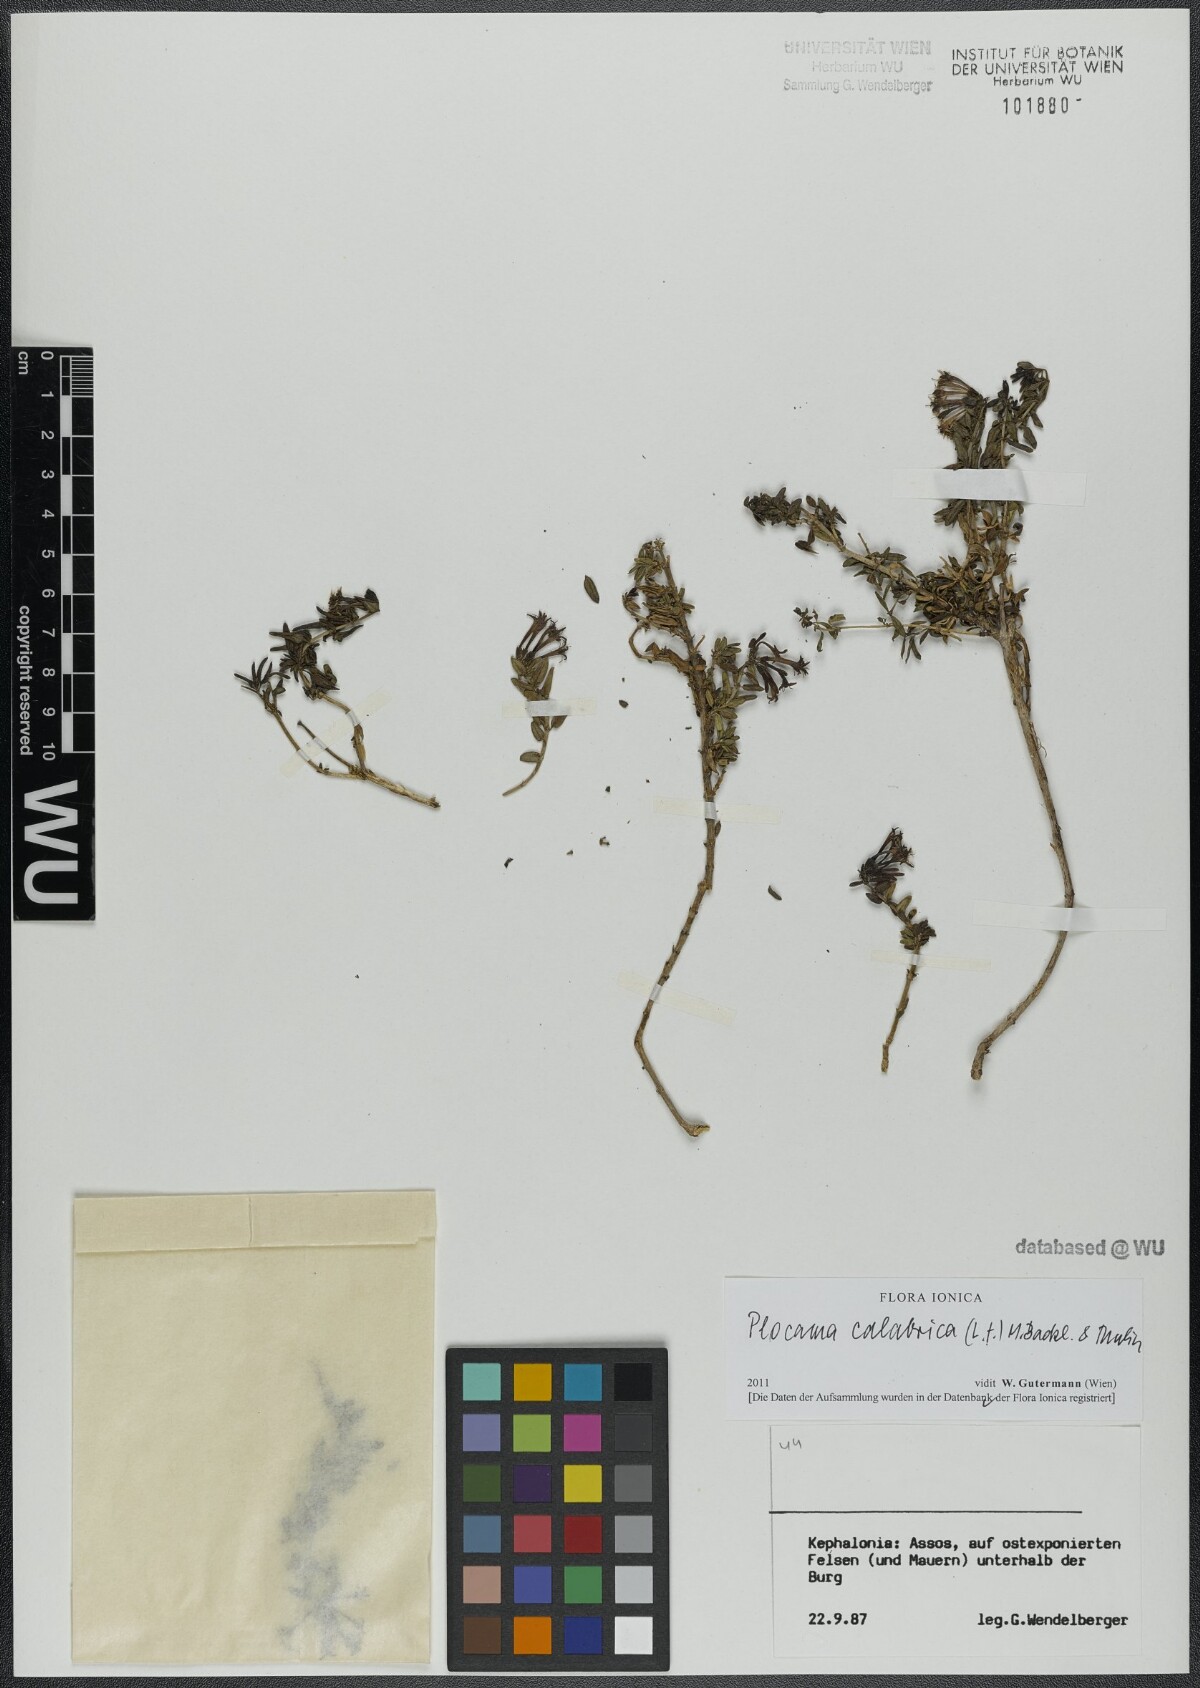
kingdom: Plantae
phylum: Tracheophyta
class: Magnoliopsida
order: Gentianales
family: Rubiaceae
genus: Plocama
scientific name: Plocama calabrica
